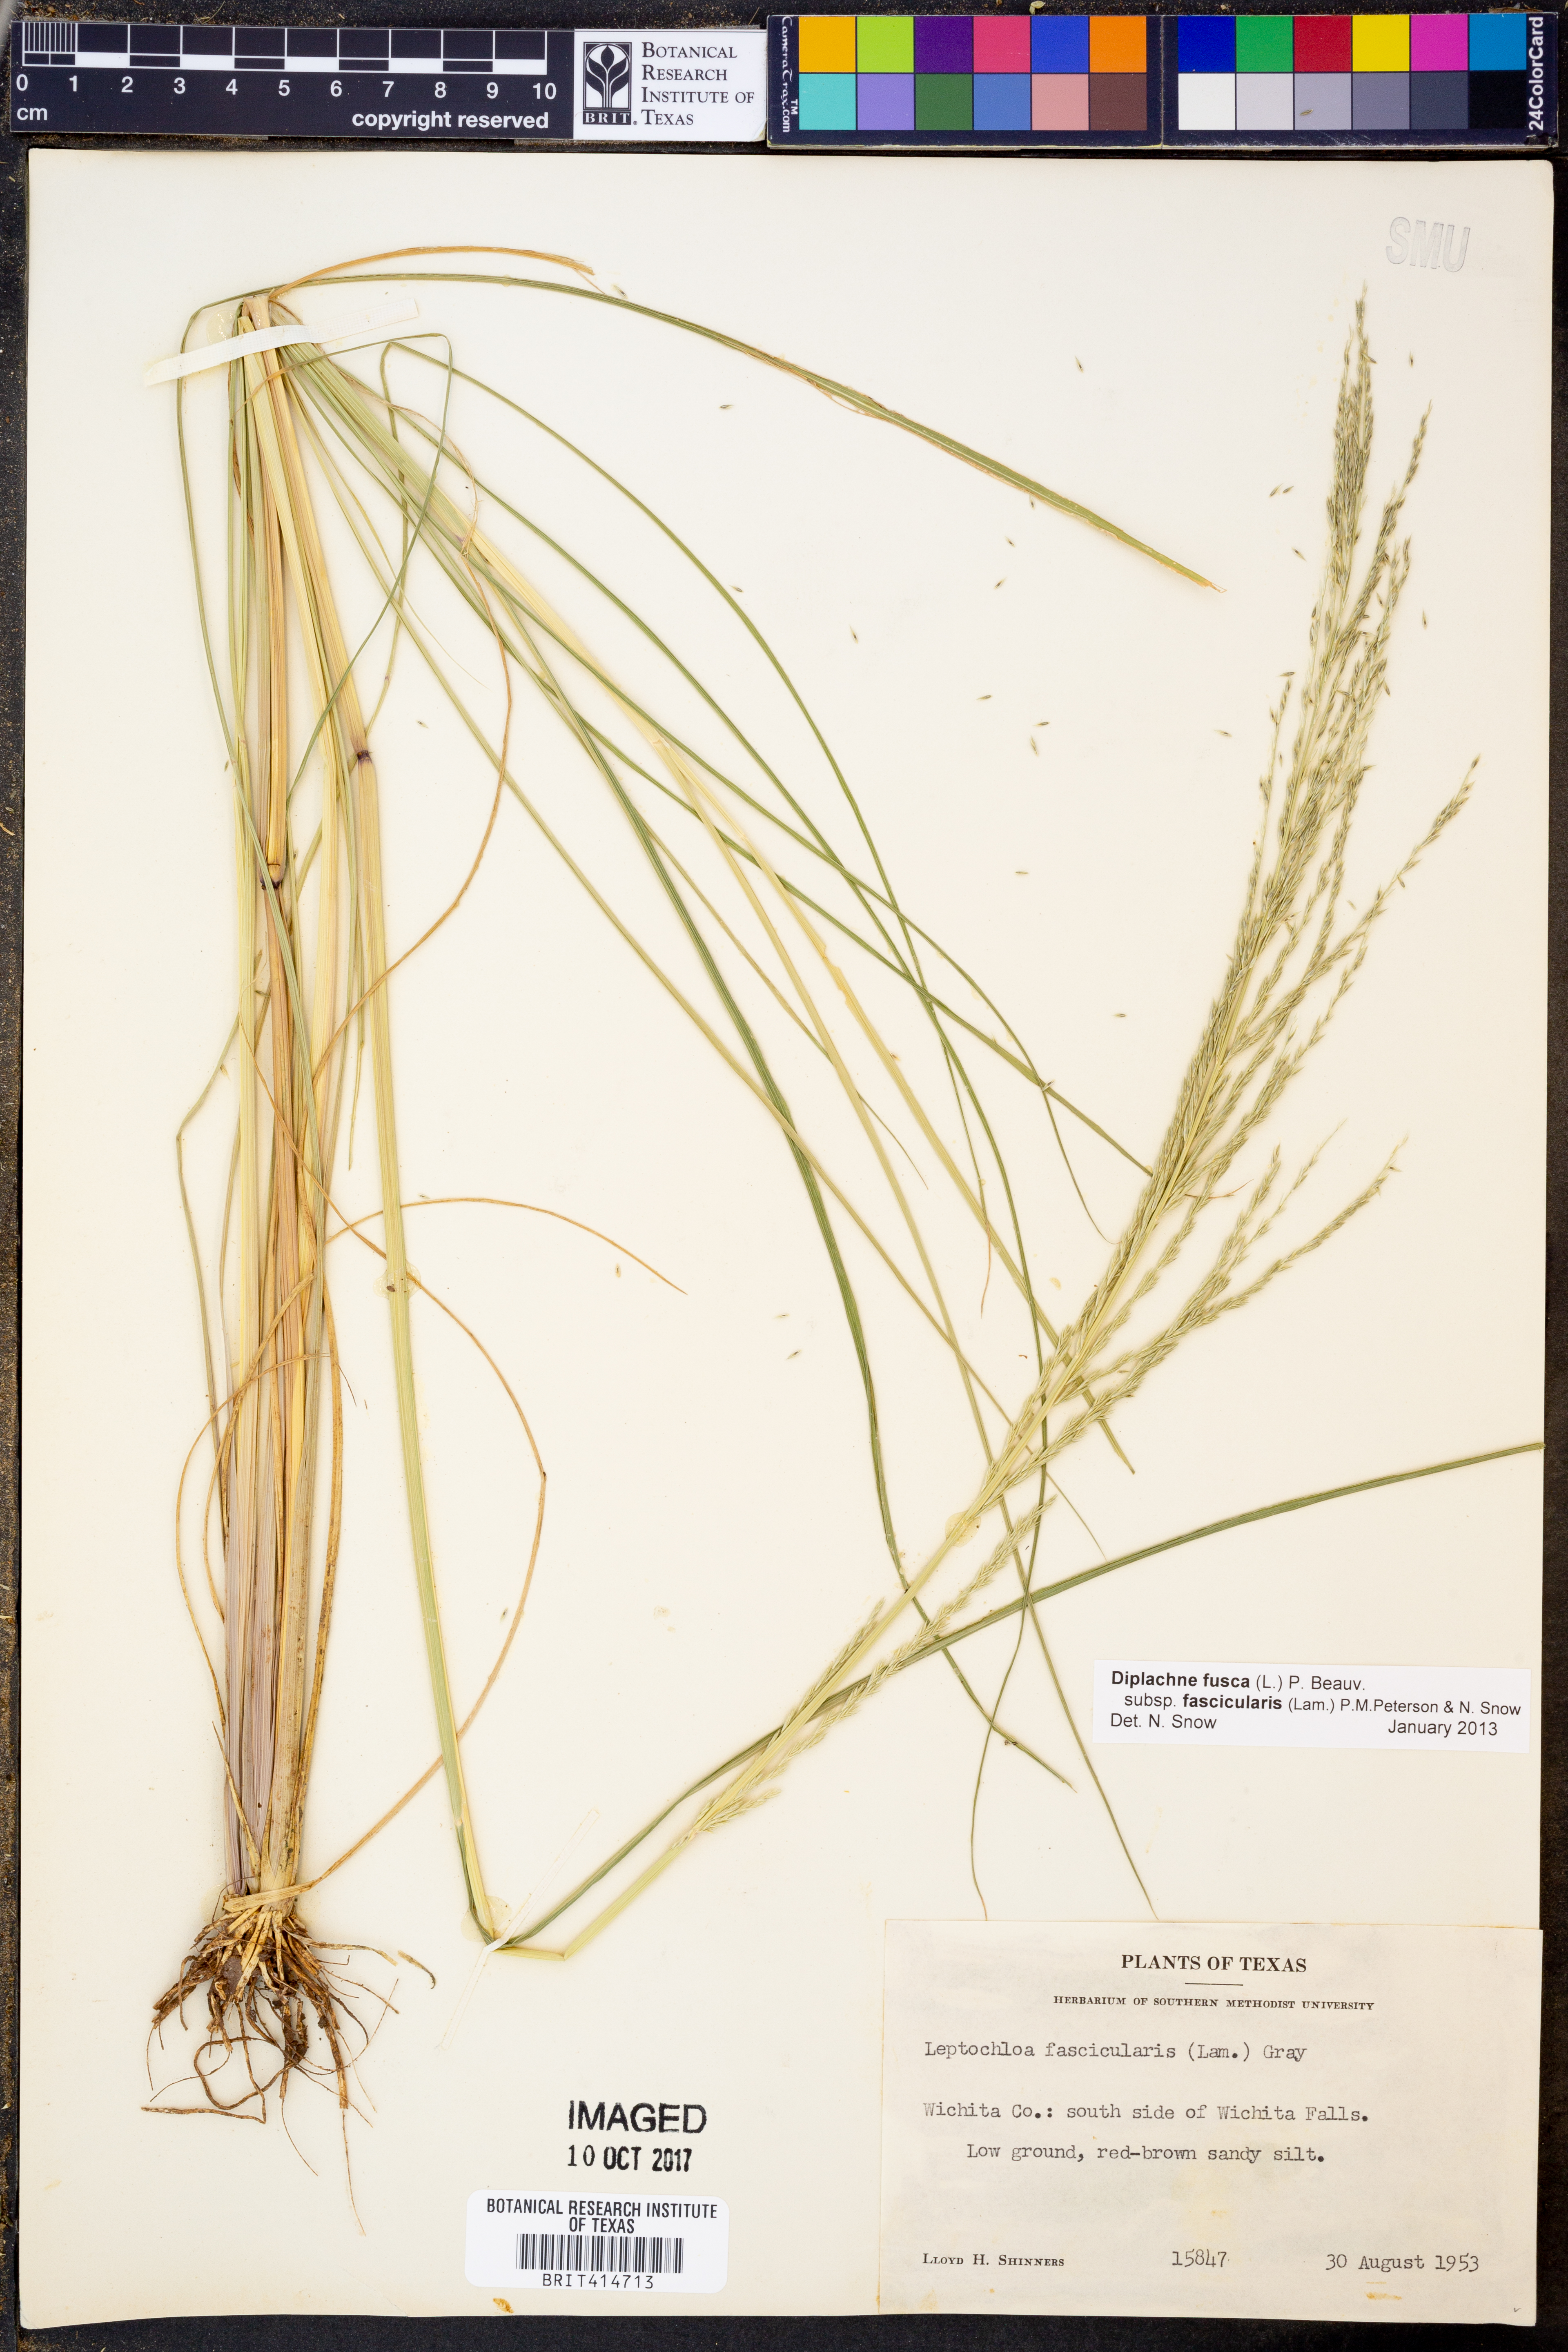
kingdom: Plantae
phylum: Tracheophyta
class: Liliopsida
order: Poales
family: Poaceae
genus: Diplachne
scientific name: Diplachne fusca
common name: Brown beetle grass
